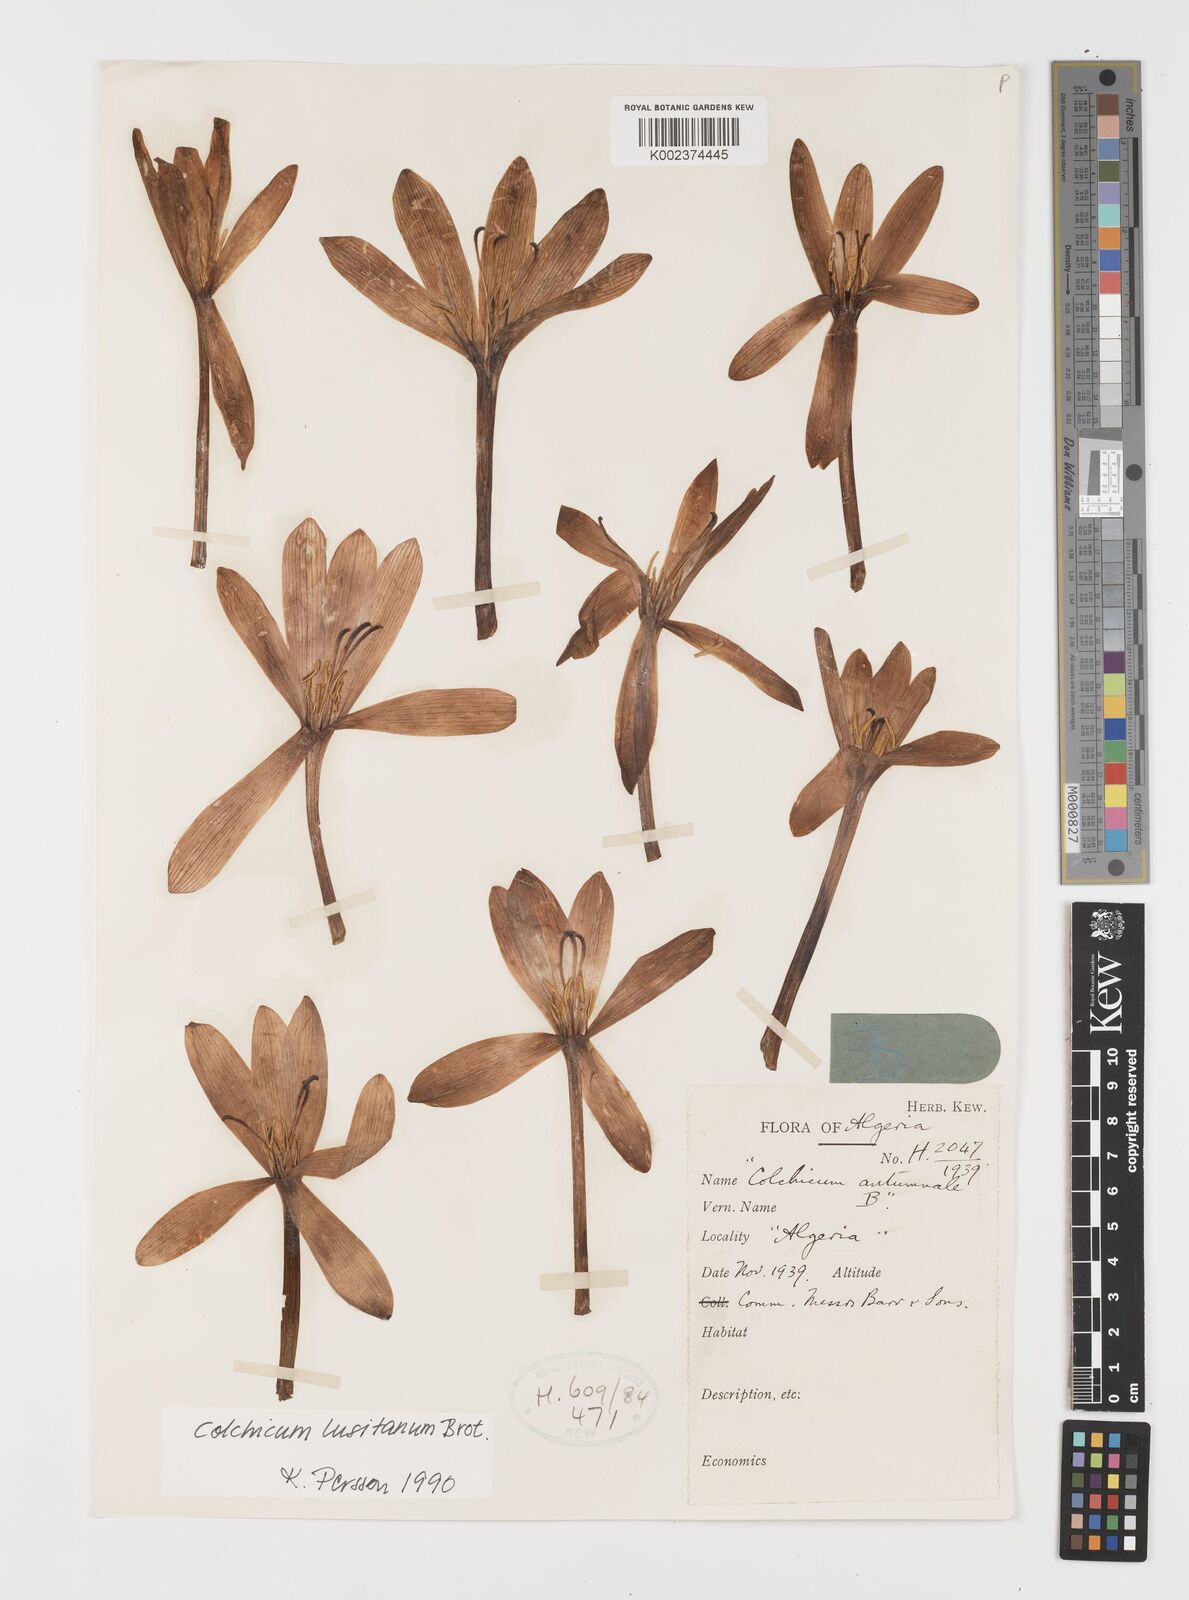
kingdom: Plantae
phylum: Tracheophyta
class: Liliopsida
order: Liliales
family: Colchicaceae
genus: Colchicum
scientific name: Colchicum lusitanum
